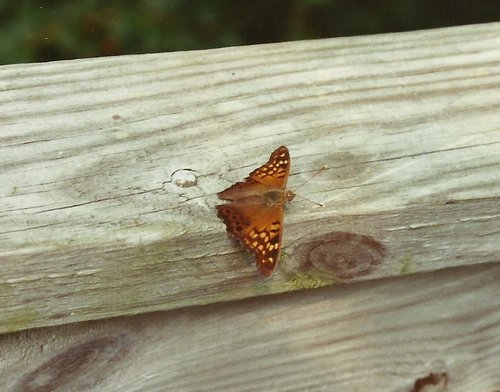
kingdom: Animalia
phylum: Arthropoda
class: Insecta
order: Lepidoptera
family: Nymphalidae
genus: Asterocampa
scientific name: Asterocampa clyton
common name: Tawny Emperor
